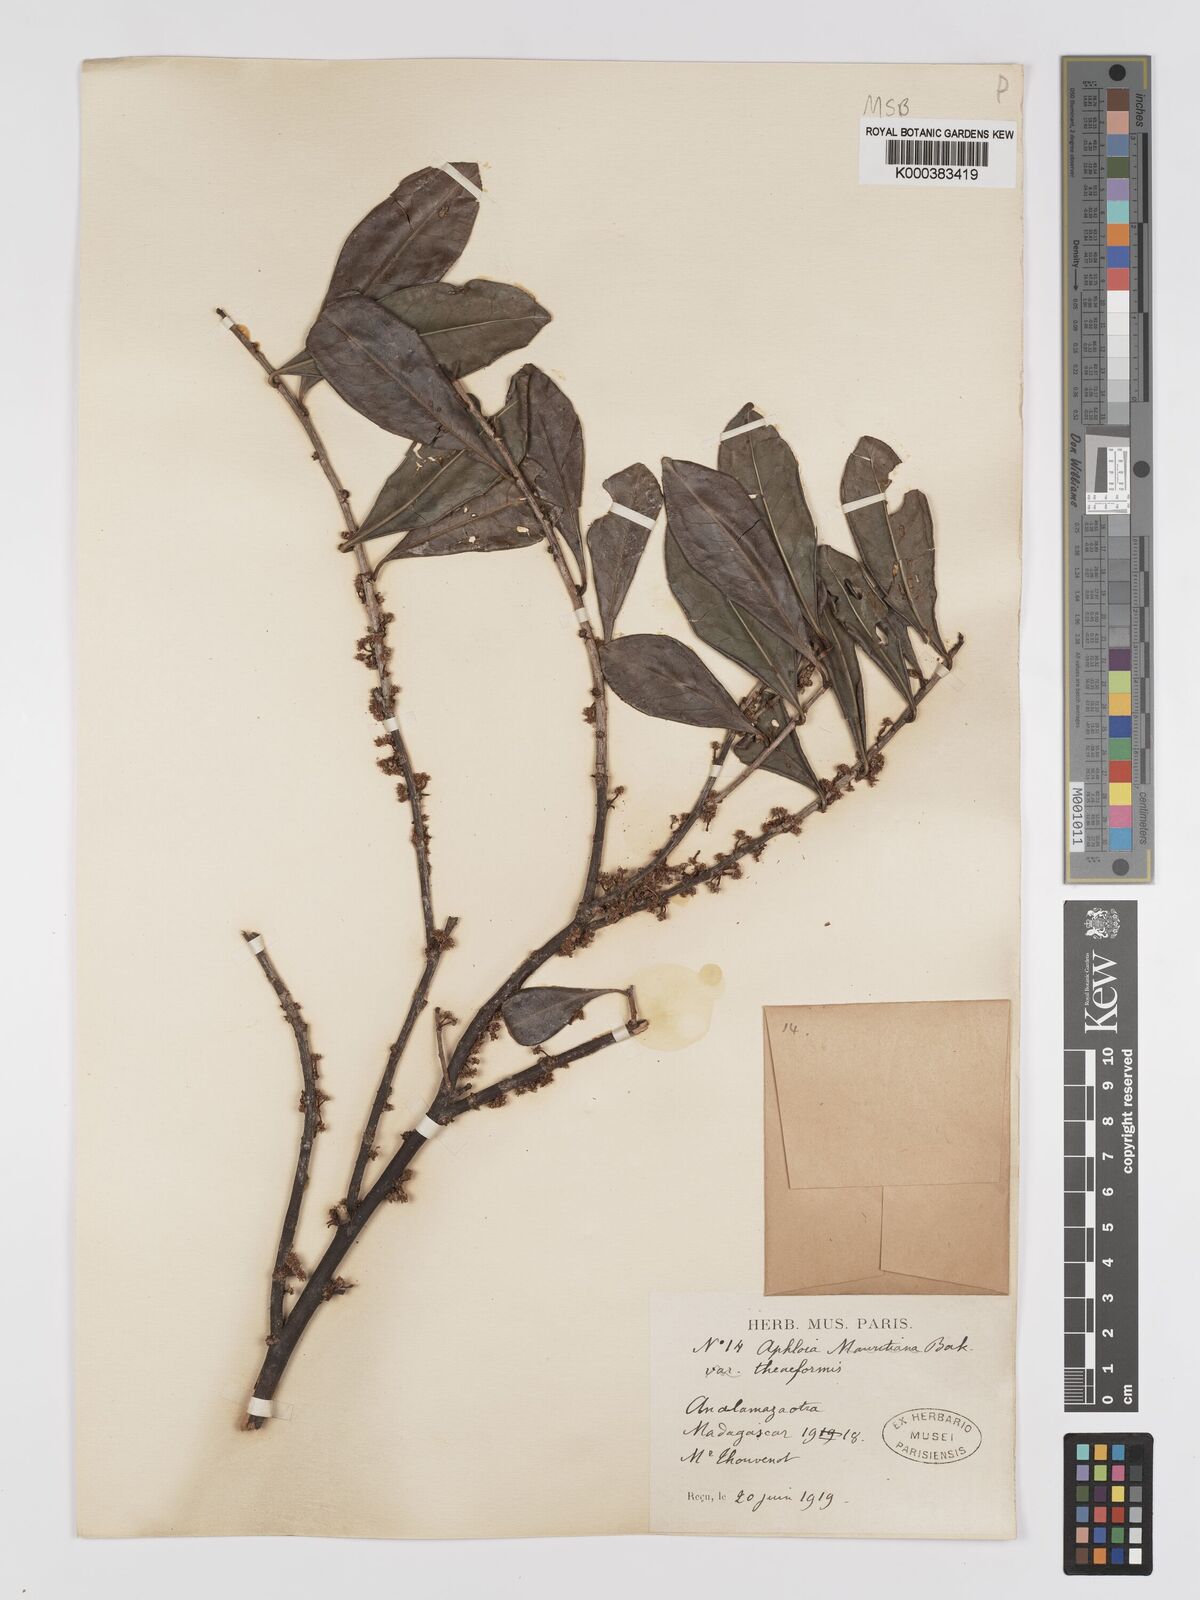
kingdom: Plantae
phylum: Tracheophyta
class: Magnoliopsida
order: Crossosomatales
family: Aphloiaceae
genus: Aphloia
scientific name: Aphloia theiformis
